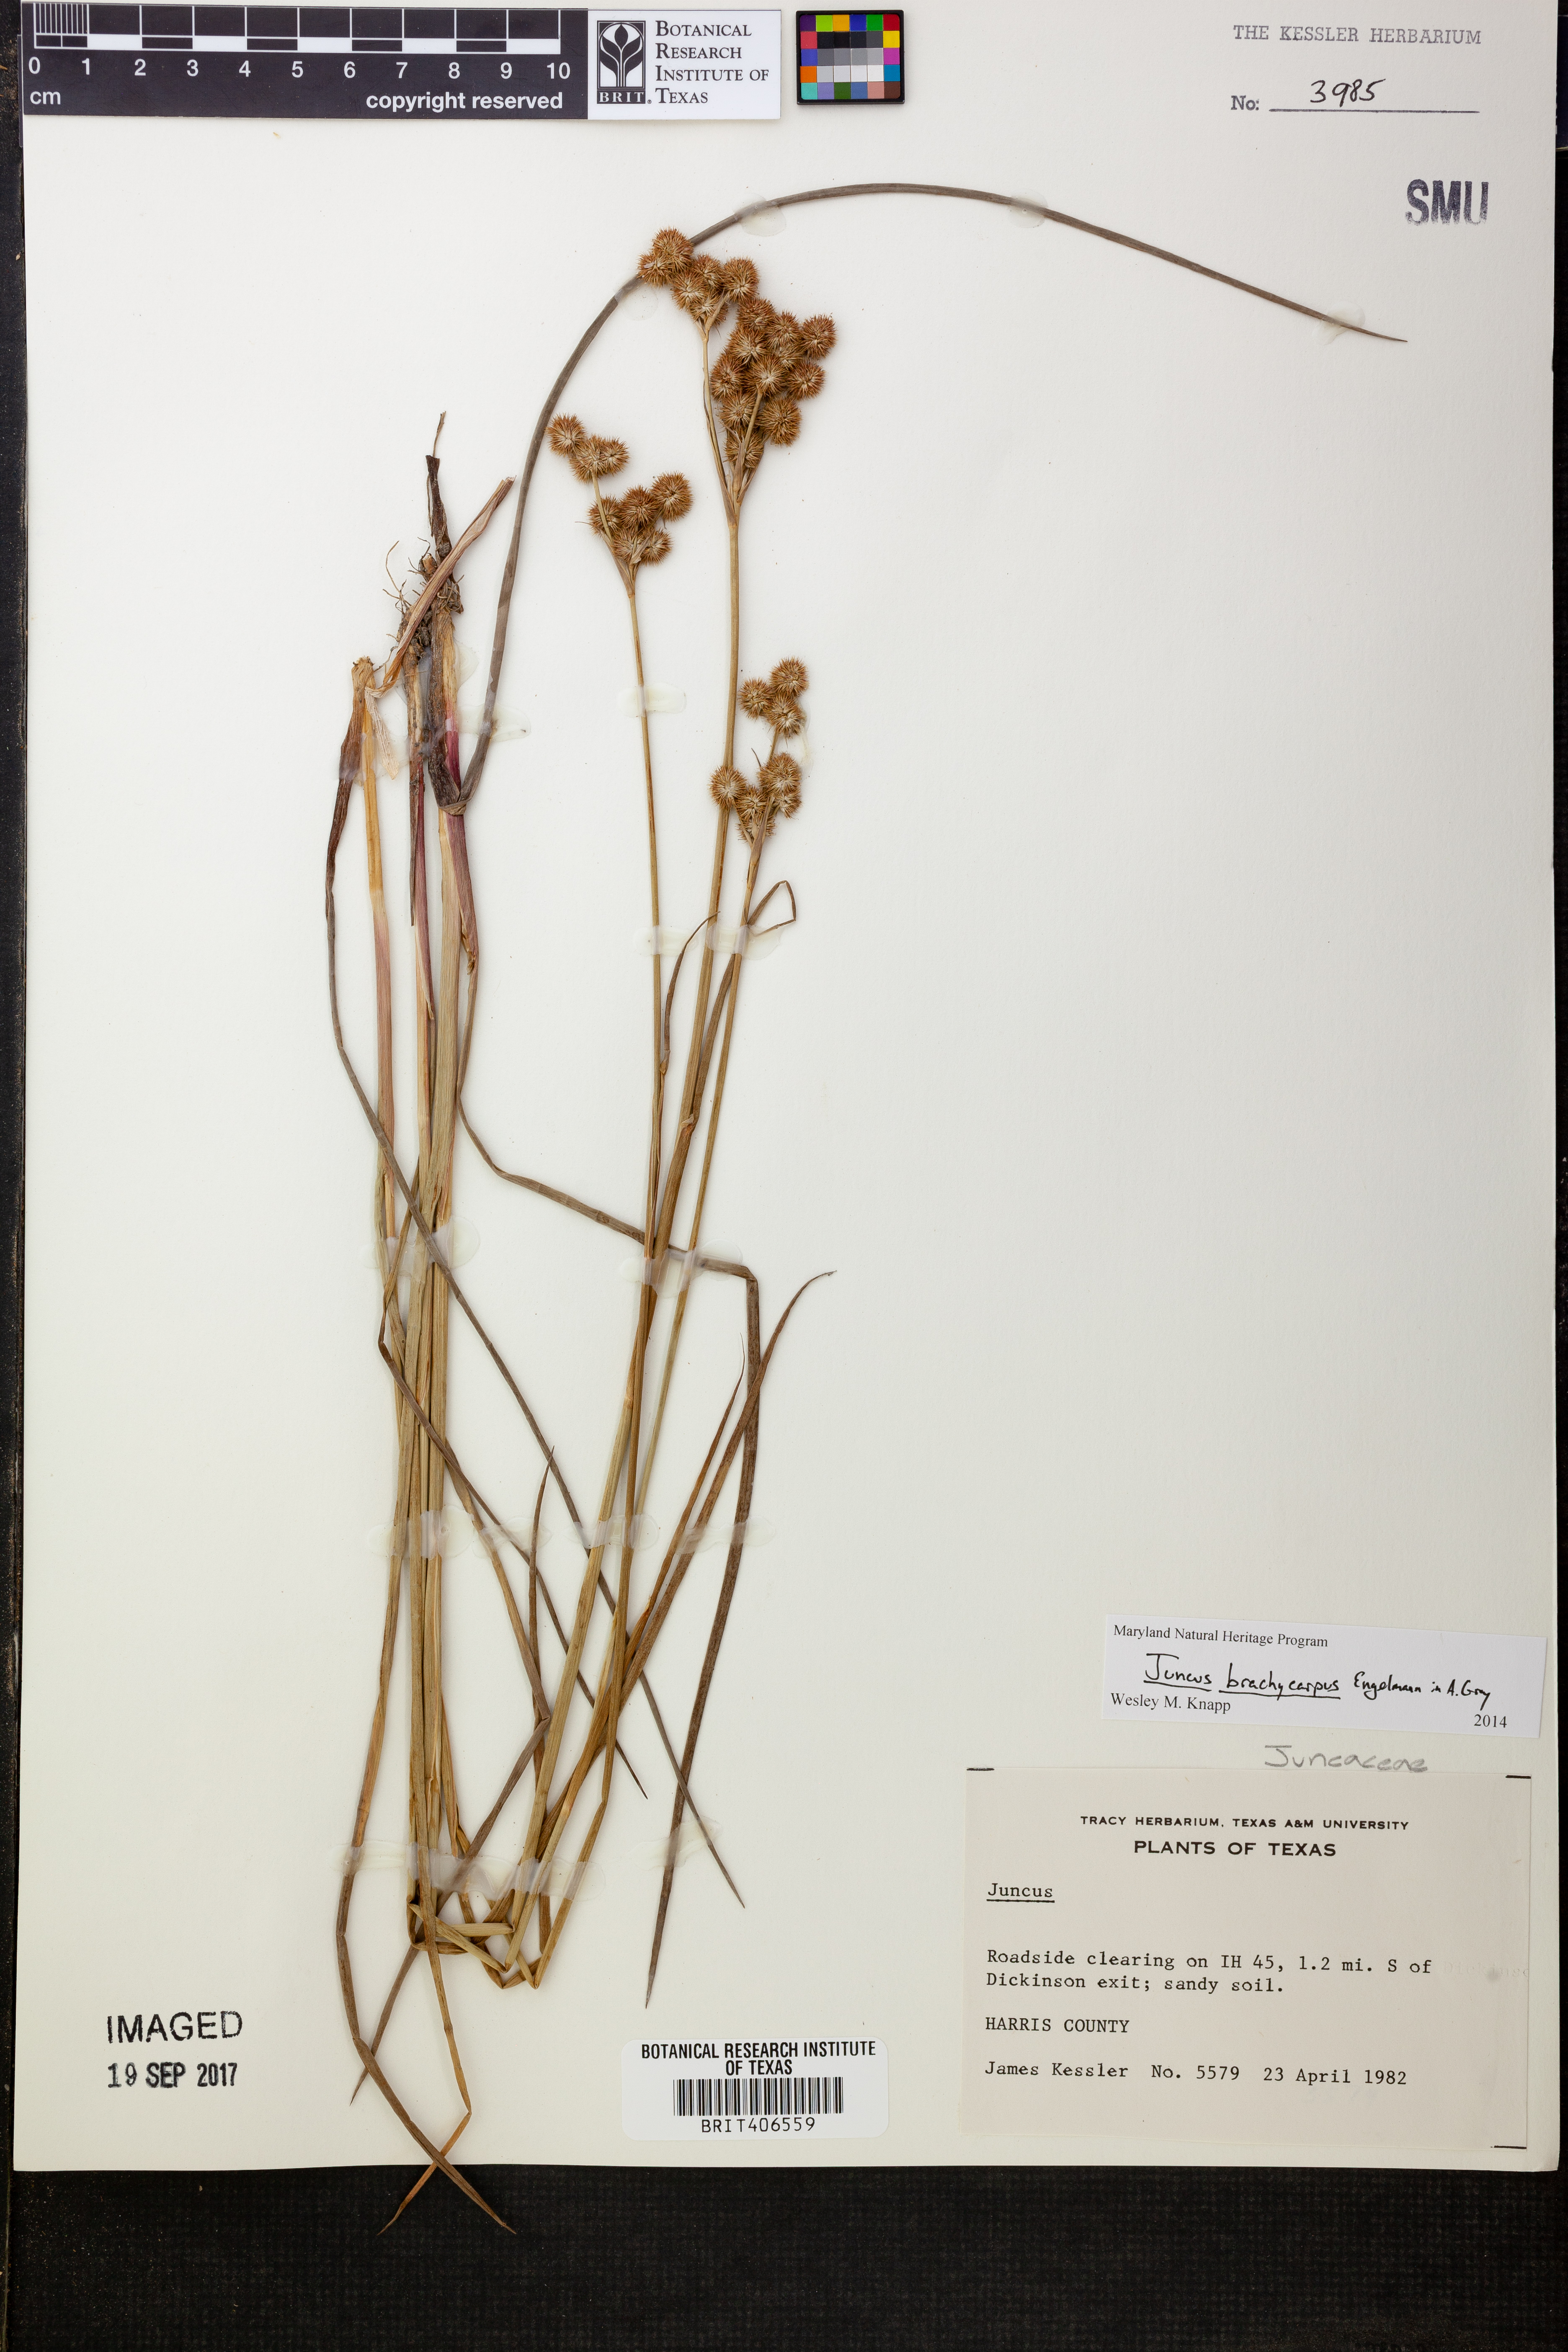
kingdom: Plantae
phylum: Tracheophyta
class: Liliopsida
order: Poales
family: Juncaceae
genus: Juncus
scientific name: Juncus brachycarpus
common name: Shore rush
